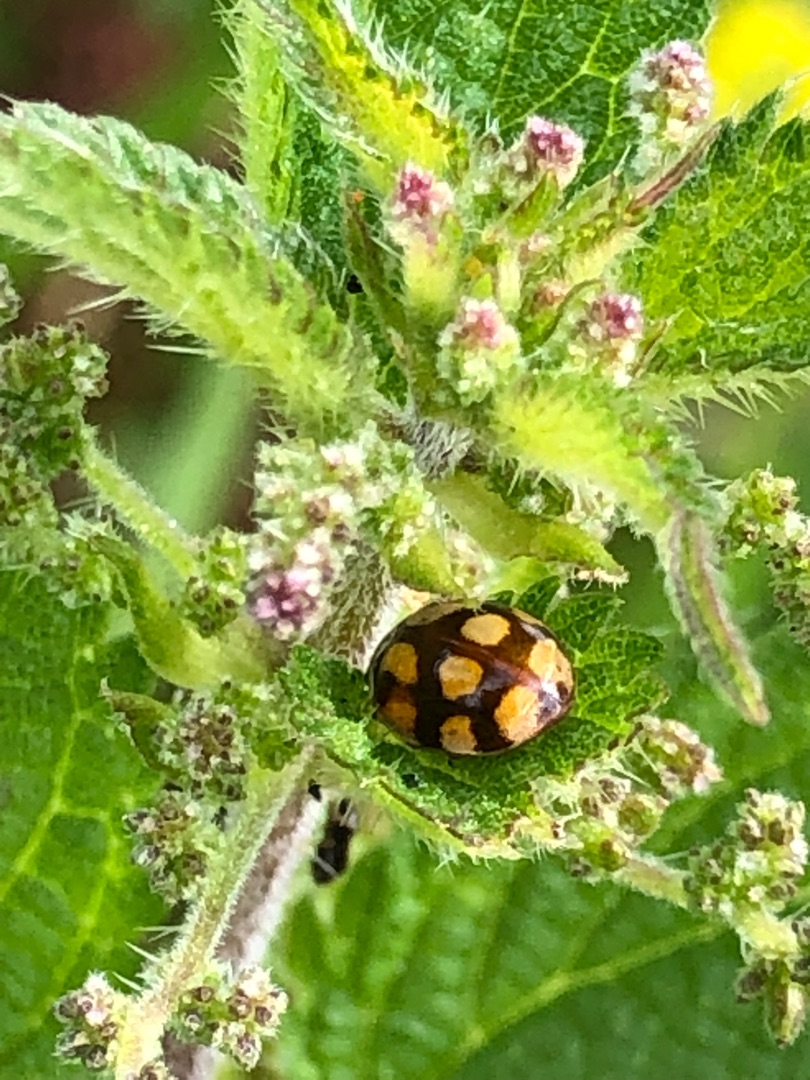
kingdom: Animalia
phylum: Arthropoda
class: Insecta
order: Coleoptera
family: Coccinellidae
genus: Adalia
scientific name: Adalia decempunctata
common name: Tiplettet mariehøne
